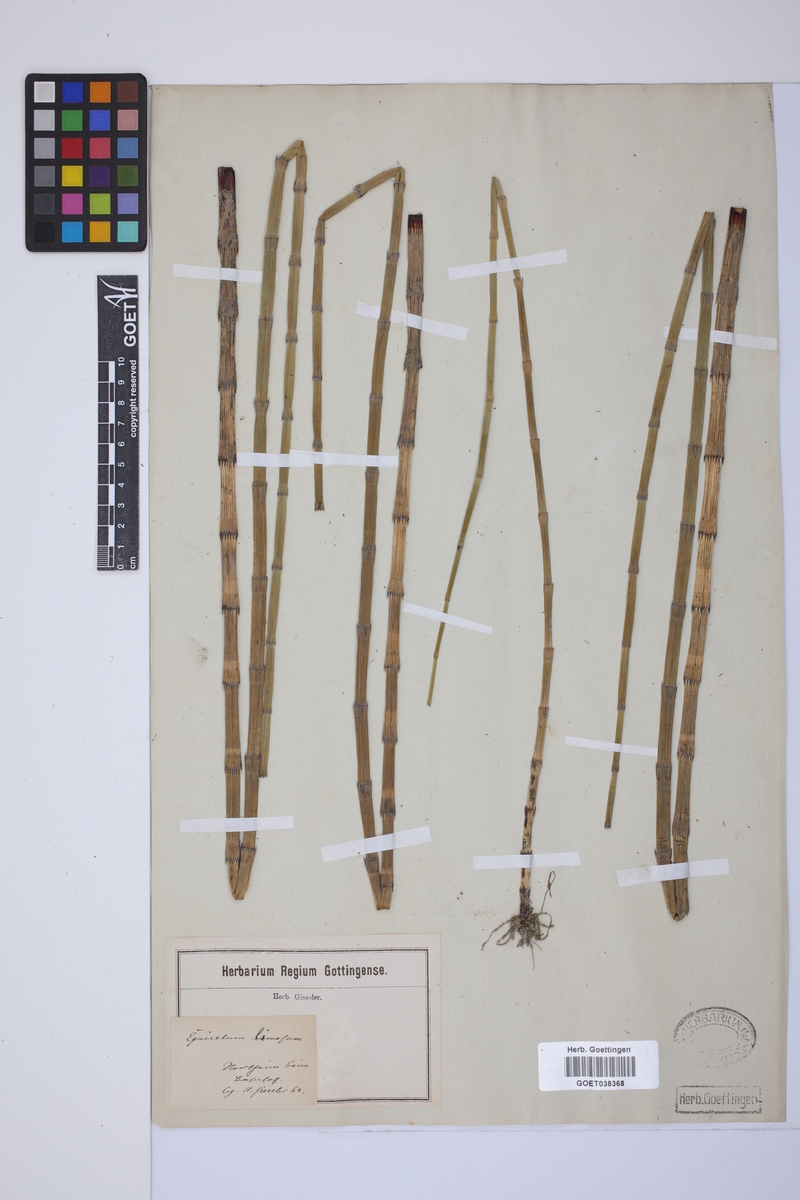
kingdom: Plantae
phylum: Tracheophyta
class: Polypodiopsida
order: Equisetales
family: Equisetaceae
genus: Equisetum
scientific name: Equisetum fluviatile
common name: Water horsetail
